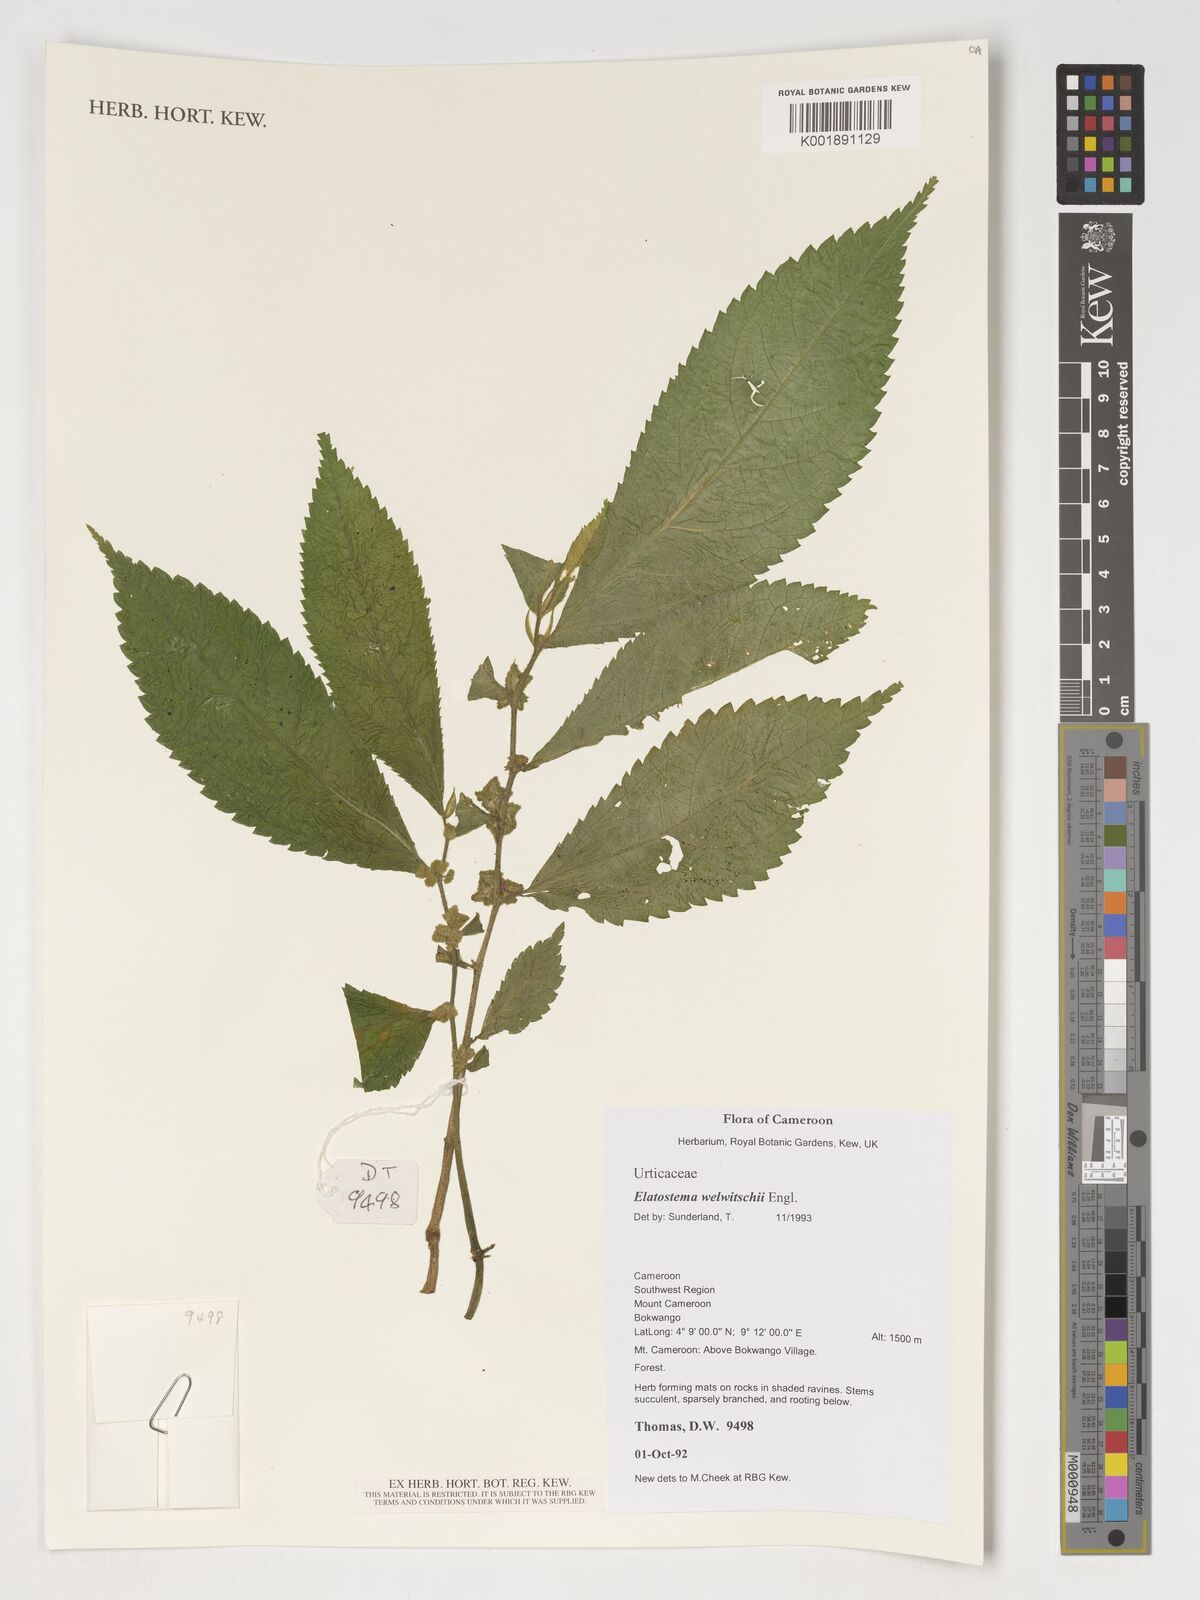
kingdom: Plantae
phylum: Tracheophyta
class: Magnoliopsida
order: Rosales
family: Urticaceae
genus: Elatostema
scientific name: Elatostema welwitschii
